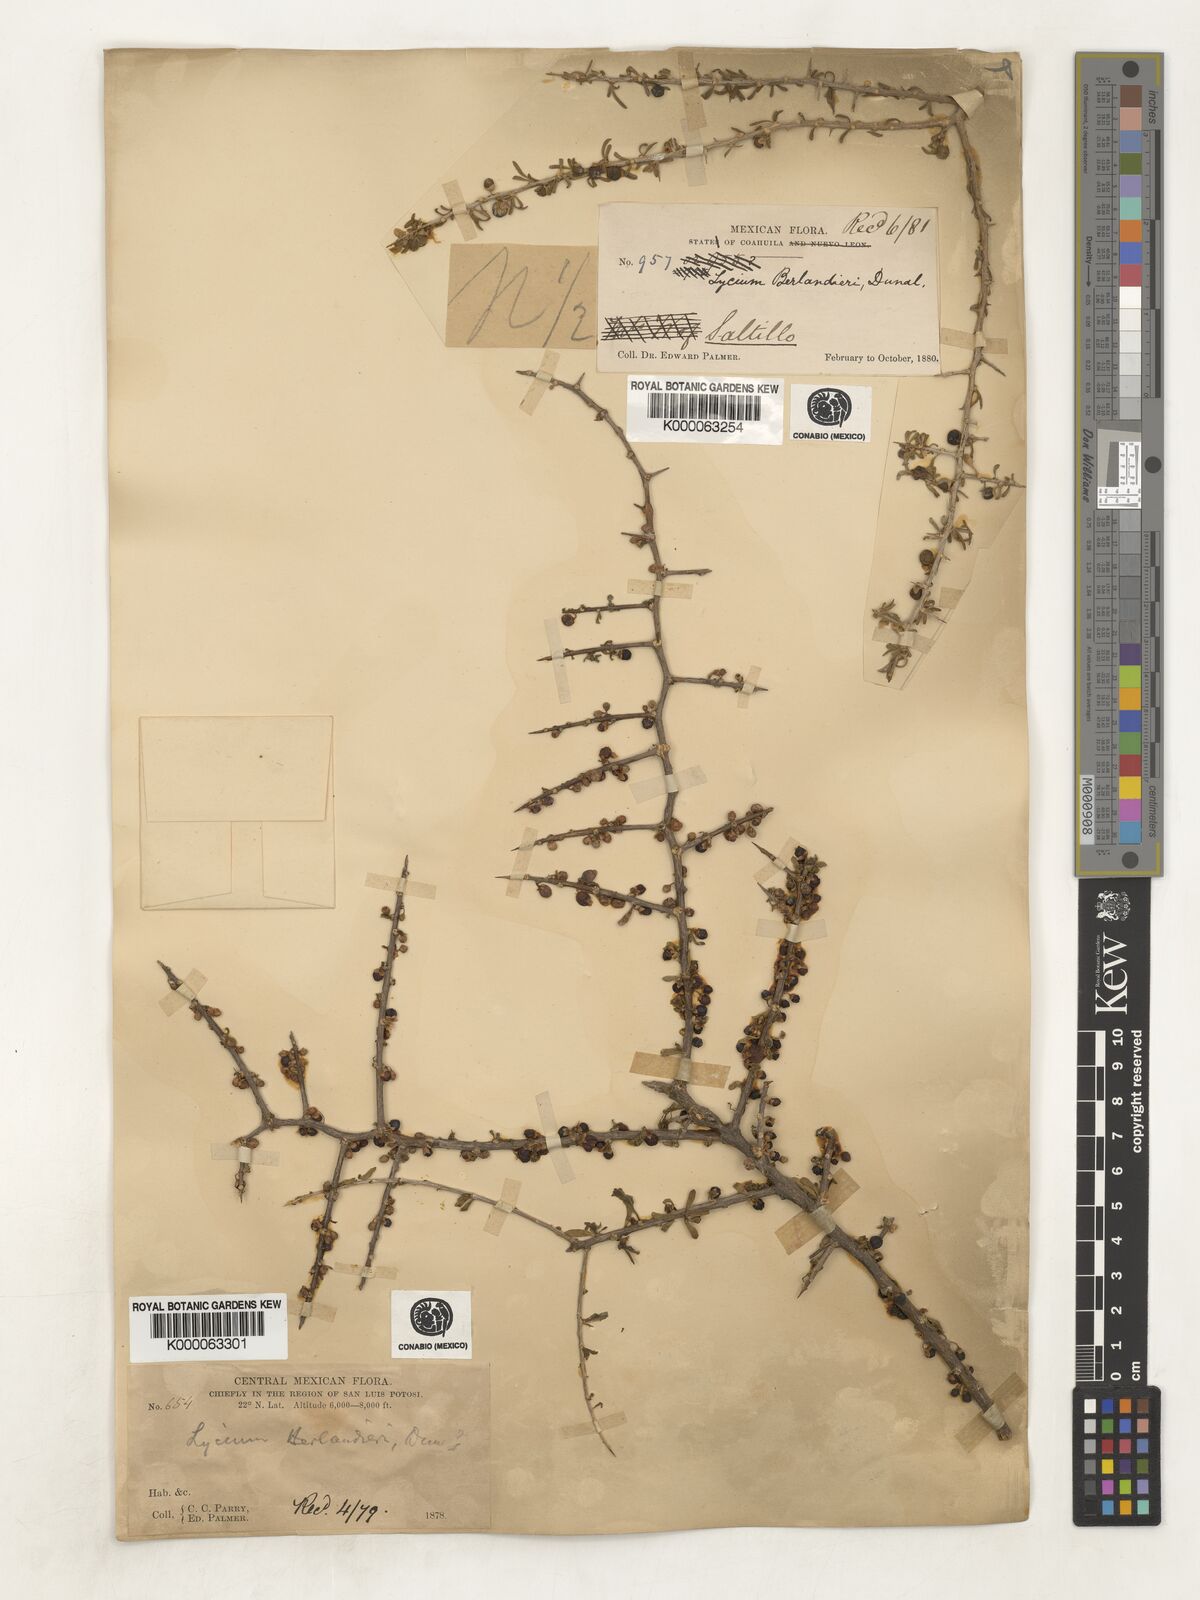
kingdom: Plantae
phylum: Tracheophyta
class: Magnoliopsida
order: Solanales
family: Solanaceae
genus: Lycium
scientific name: Lycium berlandieri
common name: Berlandier wolfberry
